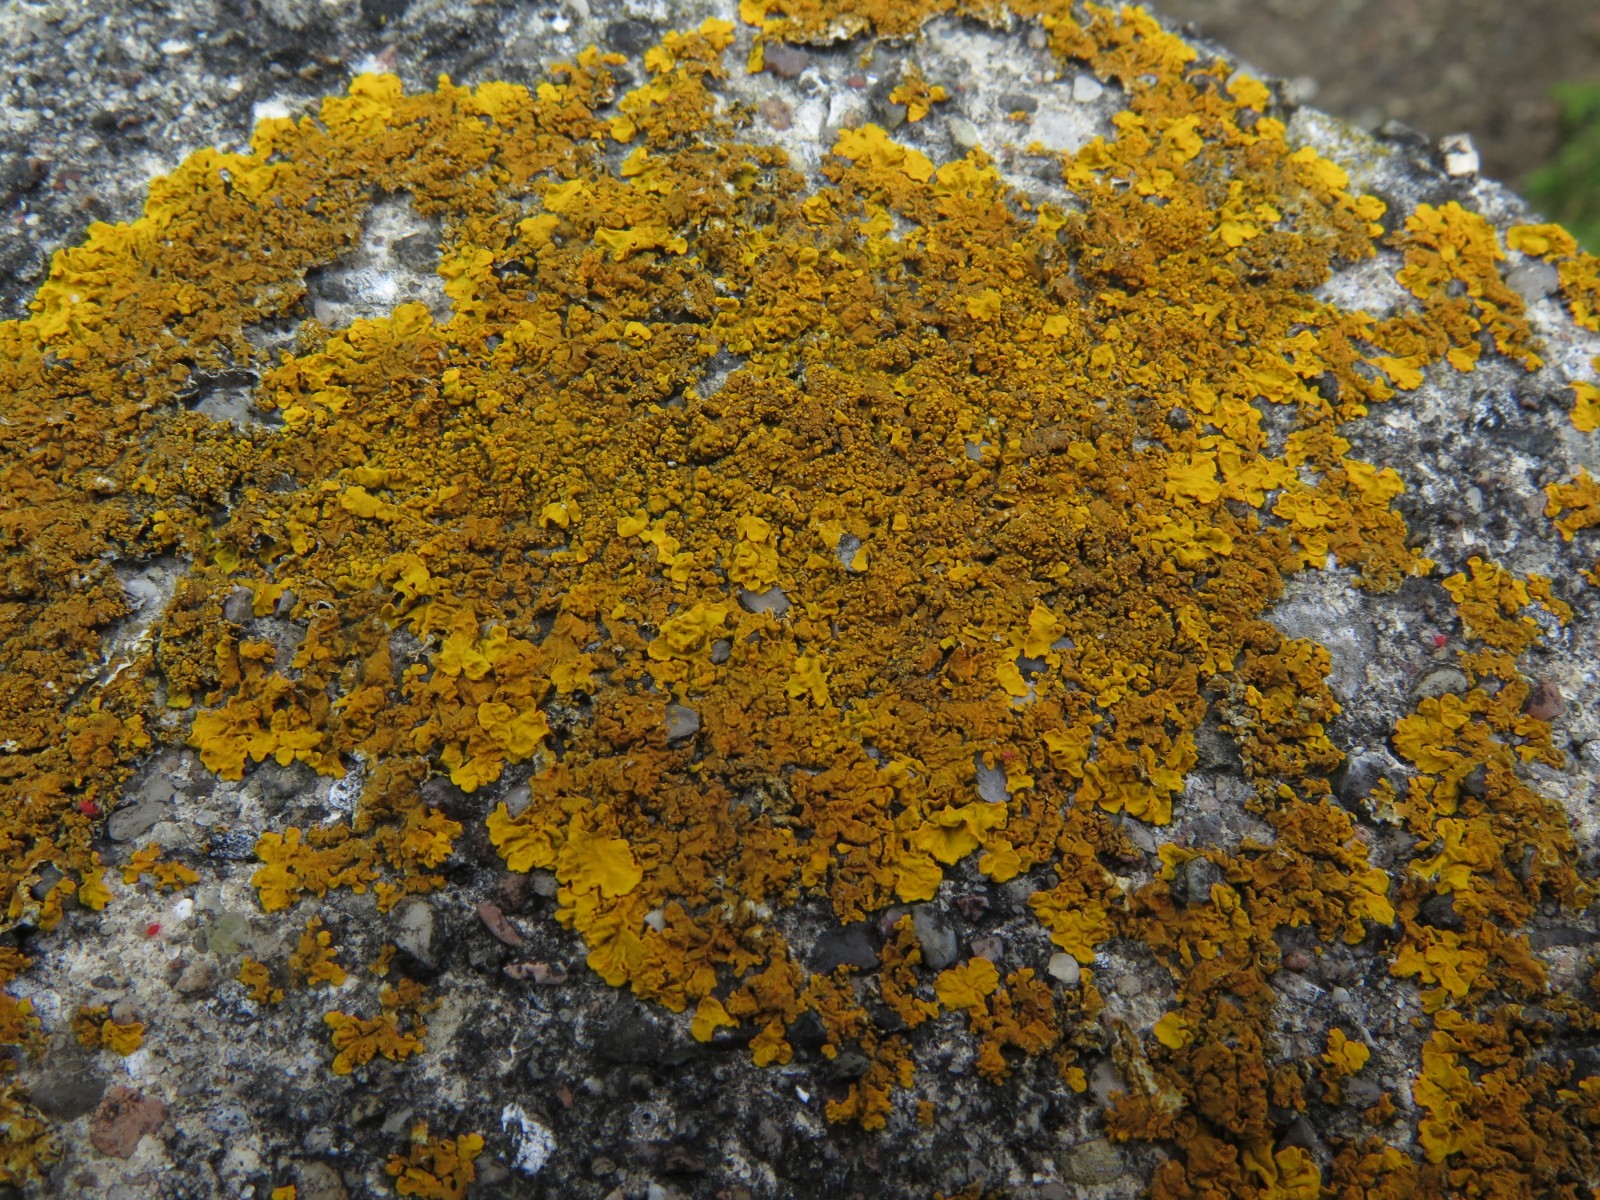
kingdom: Fungi
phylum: Ascomycota
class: Lecanoromycetes
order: Teloschistales
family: Teloschistaceae
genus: Xanthoria
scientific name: Xanthoria calcicola
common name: vortet væggelav
